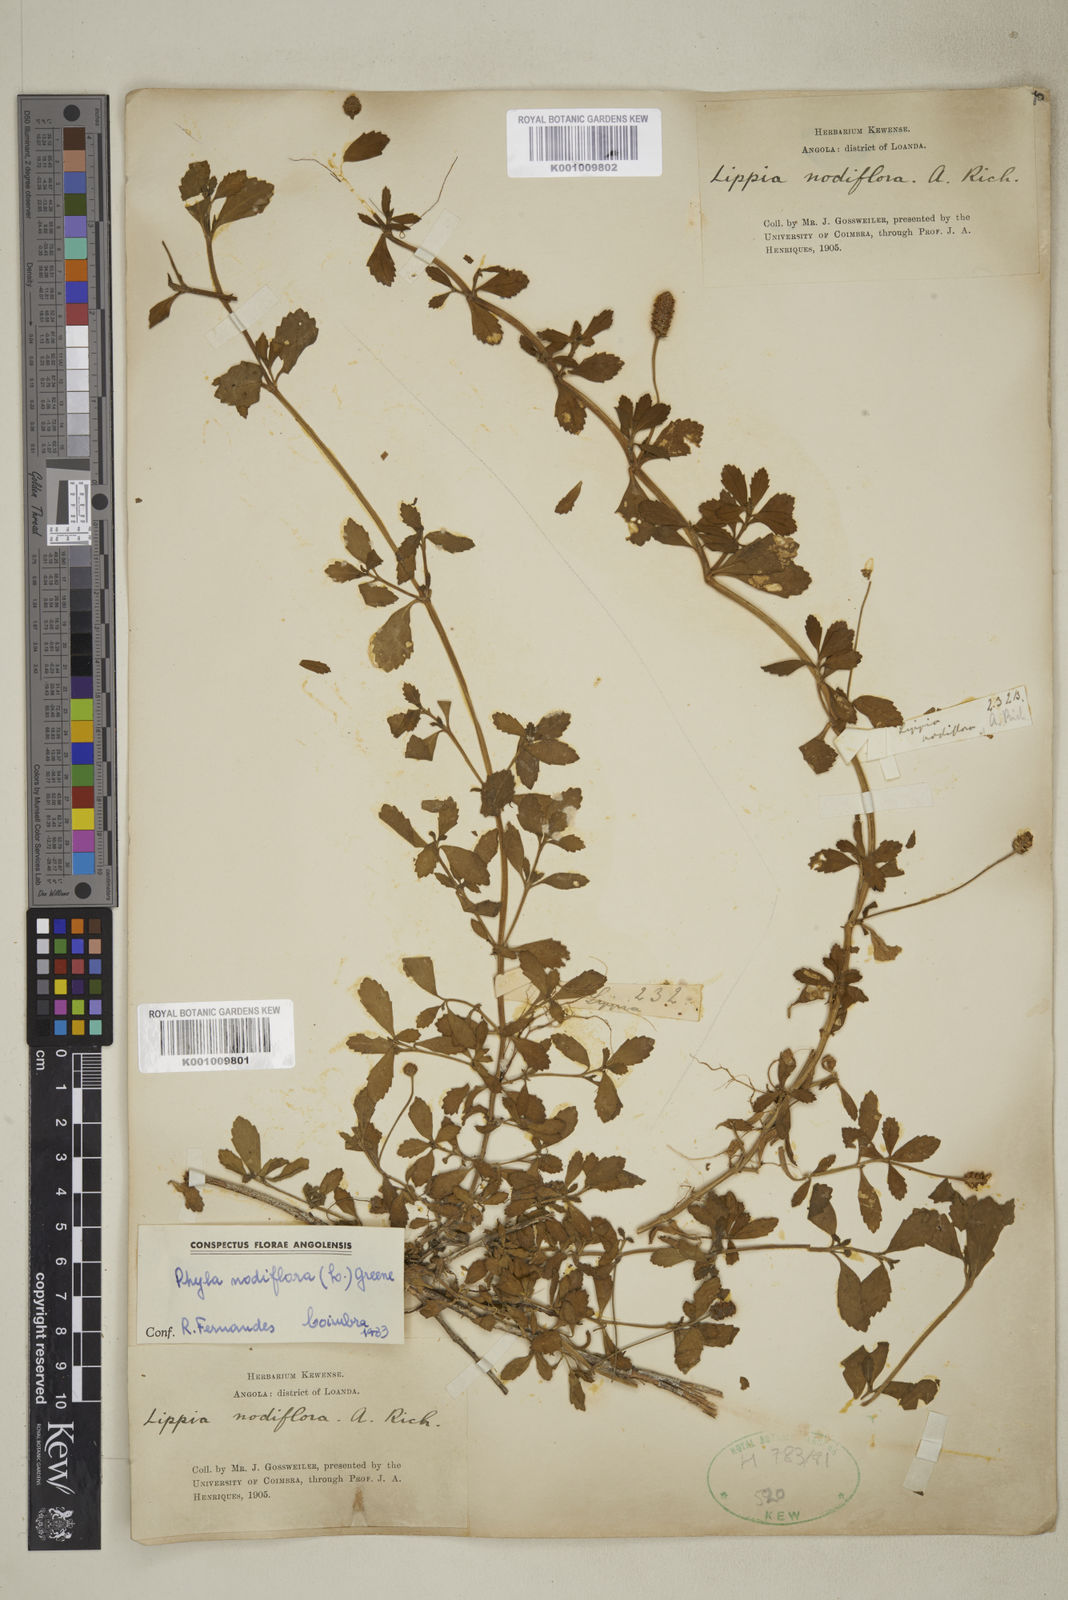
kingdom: Plantae
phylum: Tracheophyta
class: Magnoliopsida
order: Lamiales
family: Verbenaceae
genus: Phyla
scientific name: Phyla nodiflora
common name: Frogfruit
